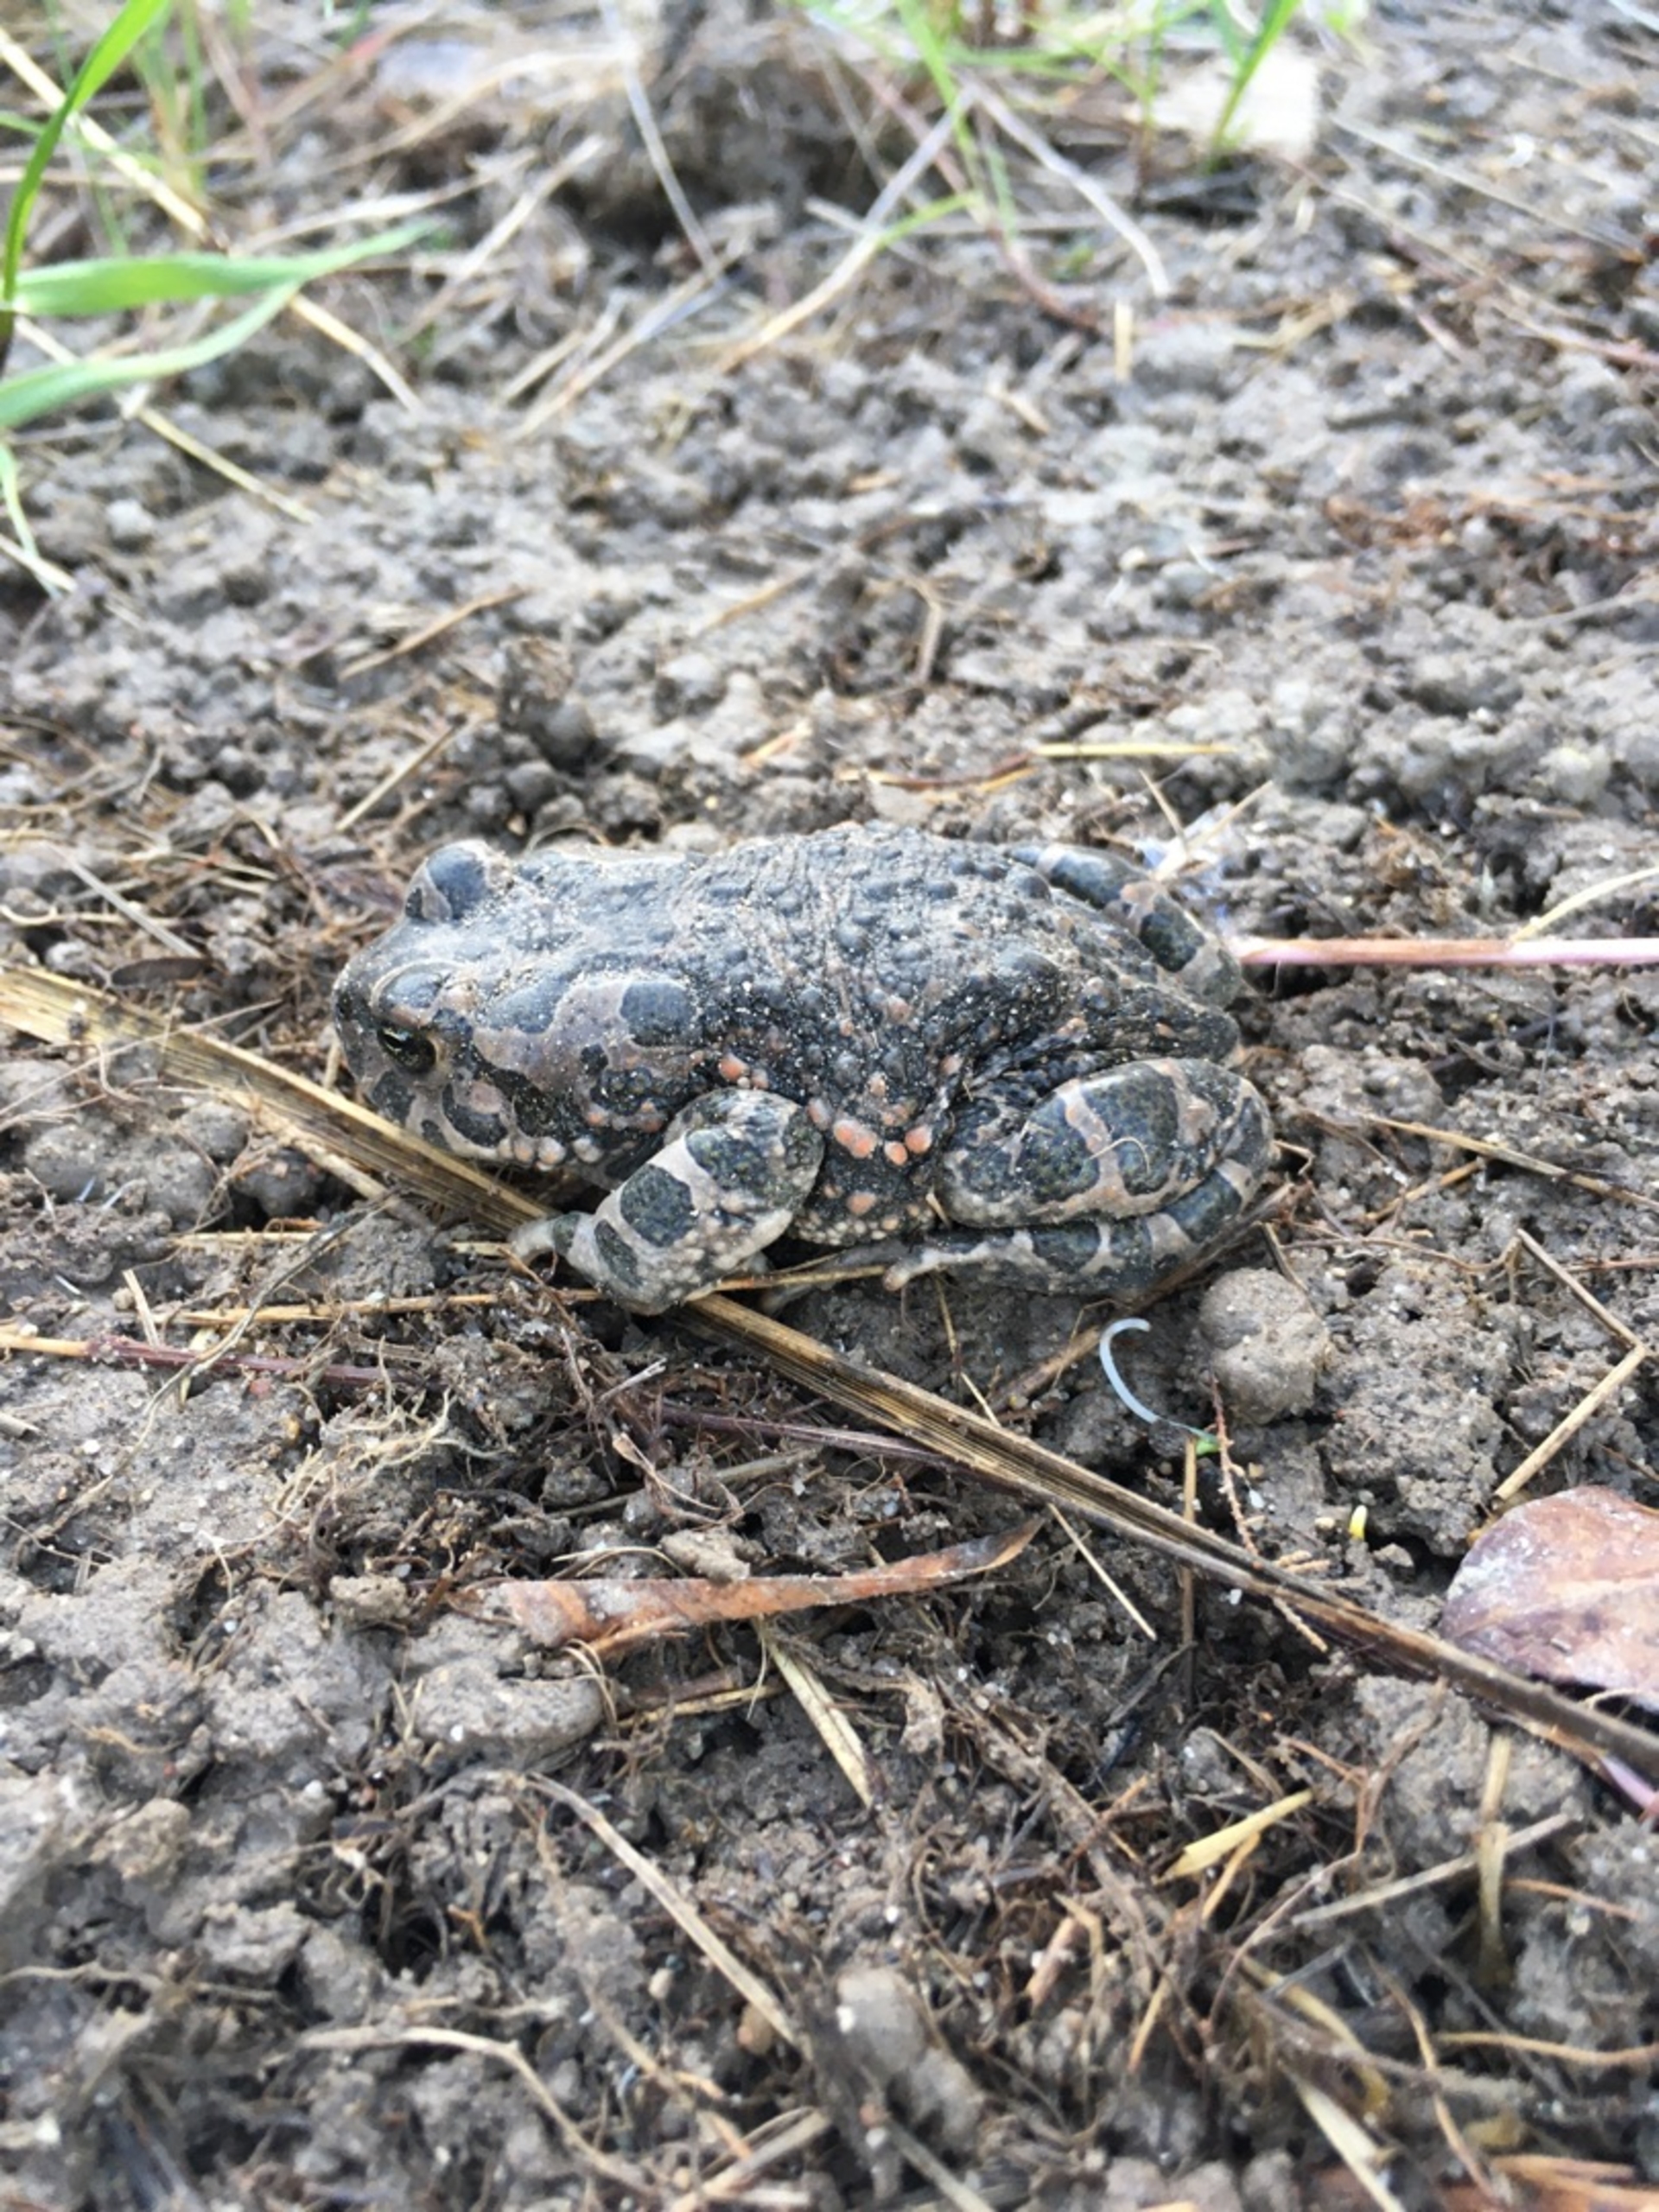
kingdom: Animalia
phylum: Chordata
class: Amphibia
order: Anura
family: Bufonidae
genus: Bufotes
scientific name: Bufotes viridis
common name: Grønbroget tudse
